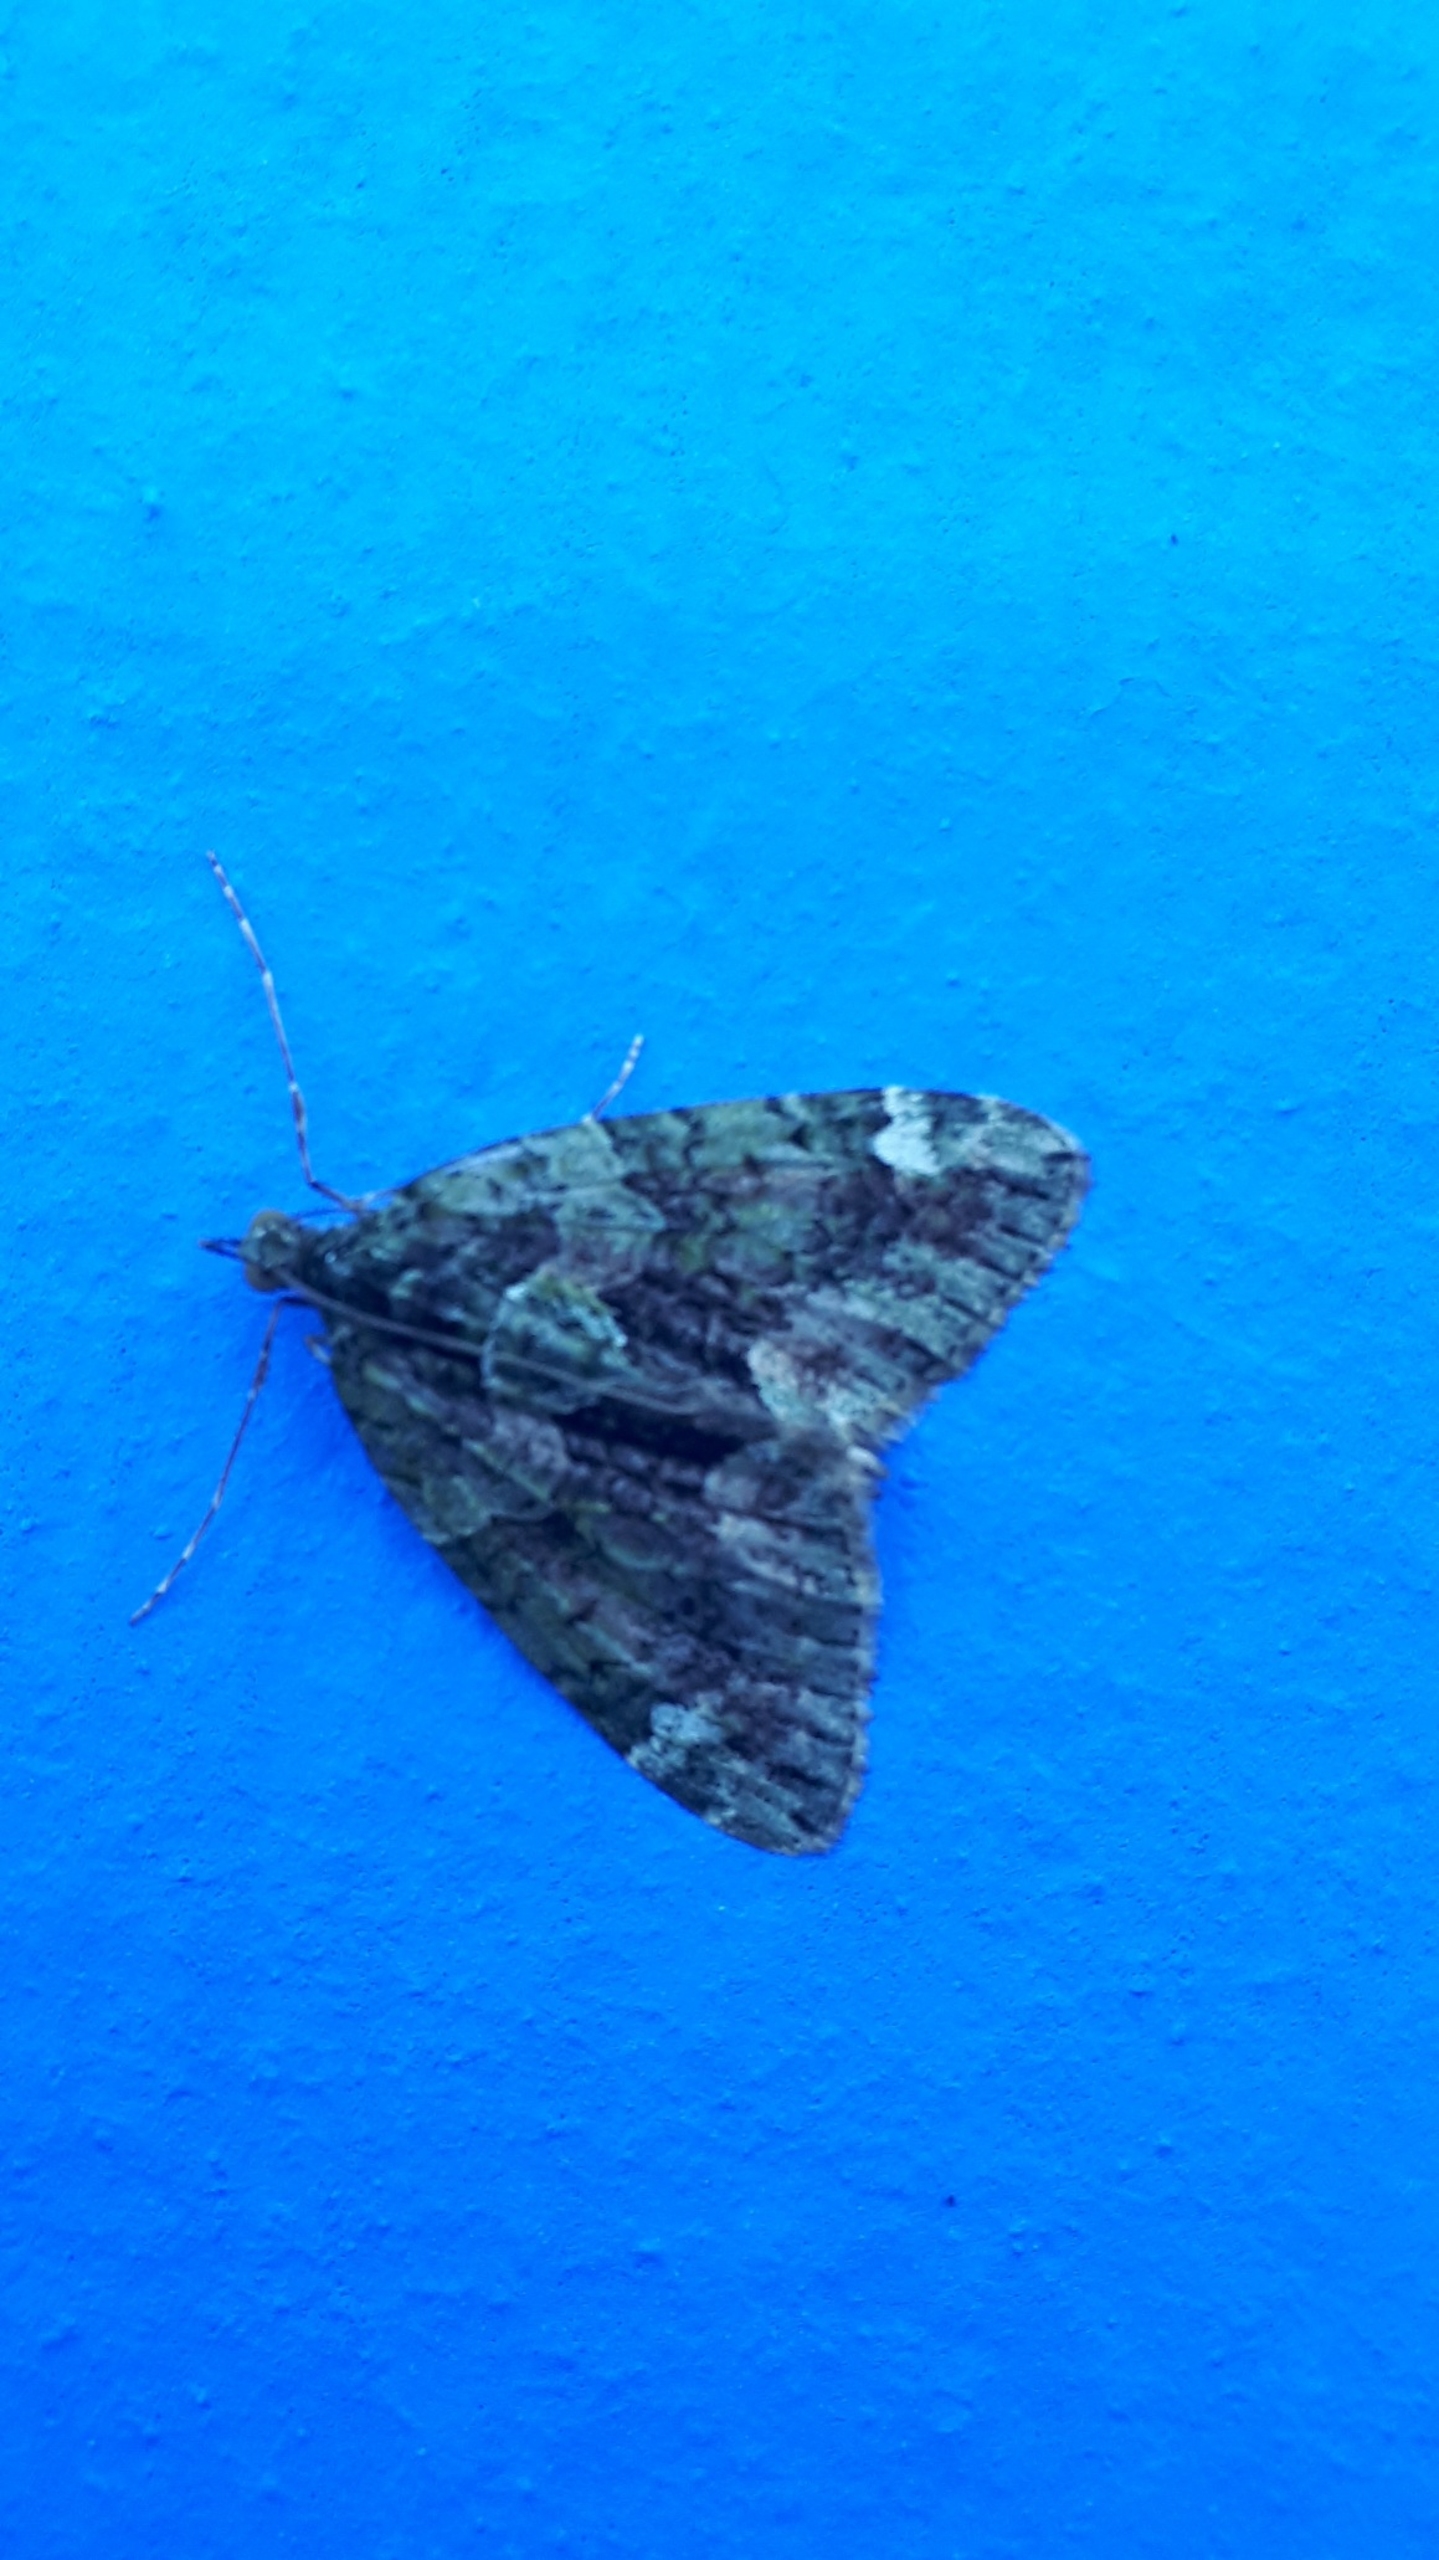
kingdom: Animalia
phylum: Arthropoda
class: Insecta
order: Lepidoptera
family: Geometridae
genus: Chloroclysta
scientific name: Chloroclysta siterata
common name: Brungrøn bladmåler
